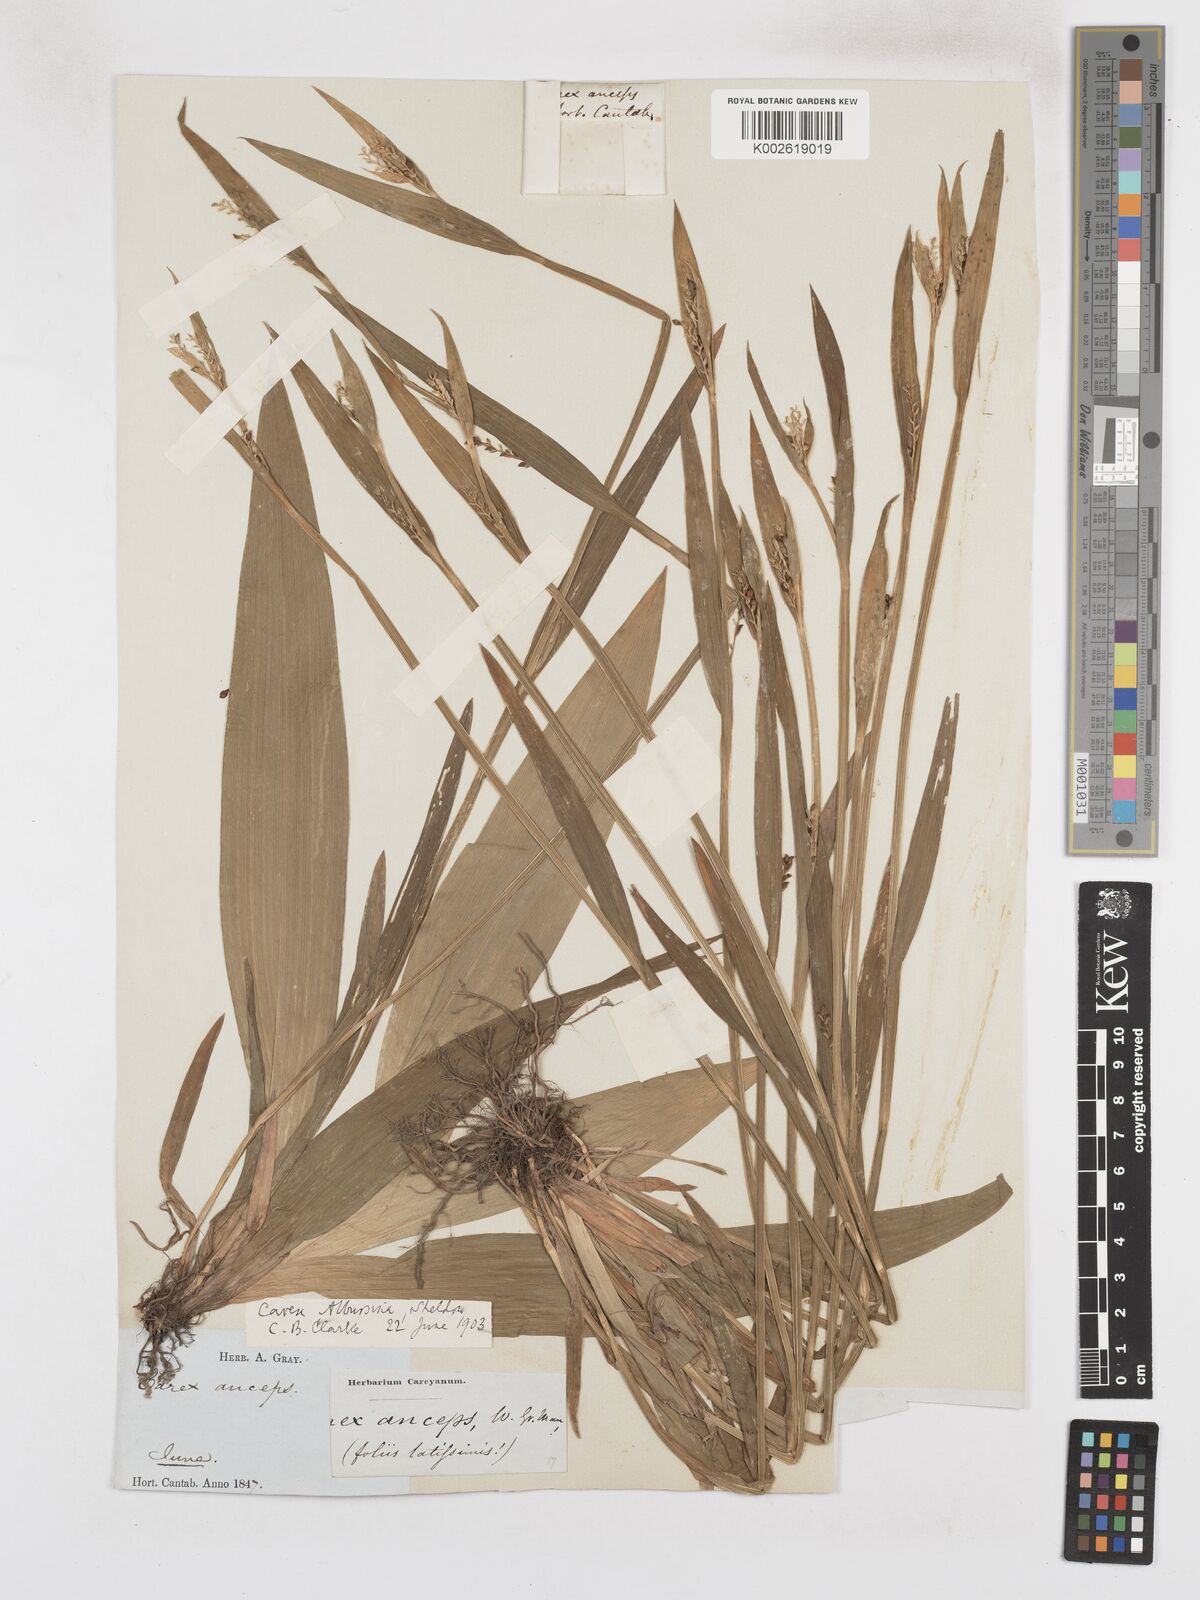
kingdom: Plantae
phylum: Tracheophyta
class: Liliopsida
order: Poales
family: Cyperaceae
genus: Carex
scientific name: Carex albursina
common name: Blunt-scale wood sedge
